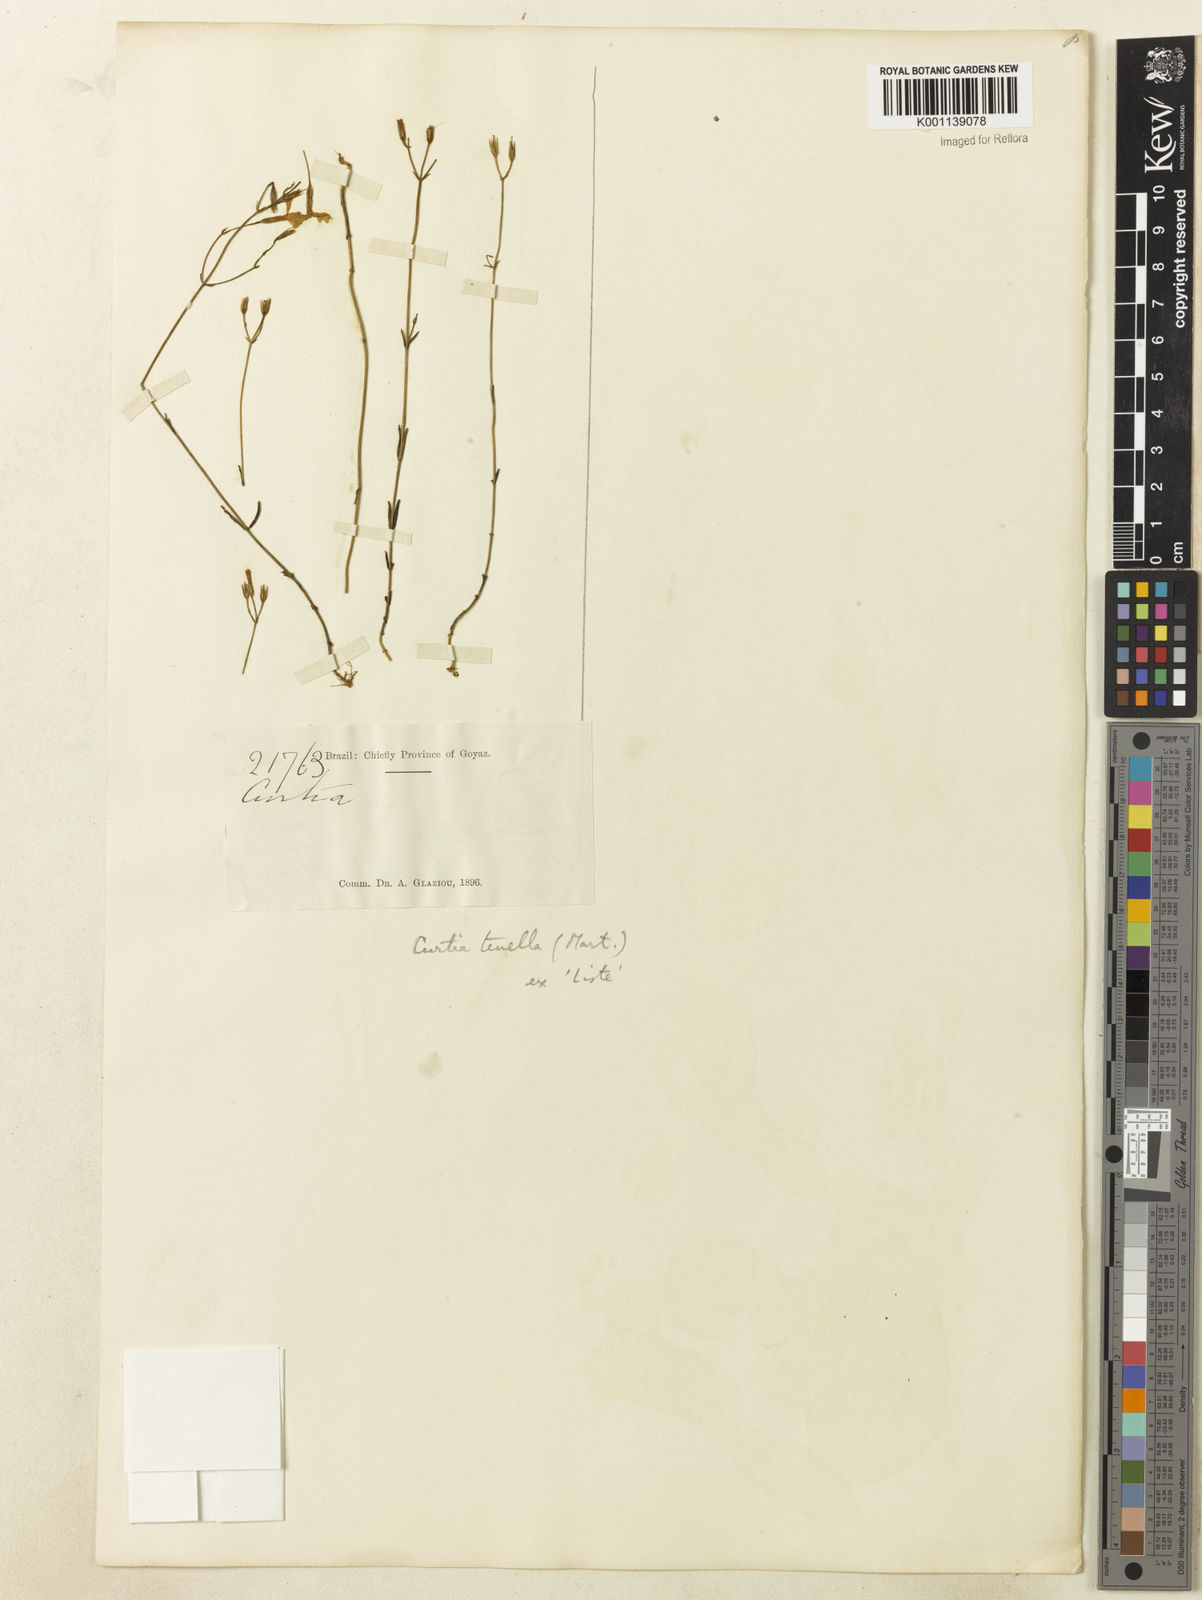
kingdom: Plantae
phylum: Tracheophyta
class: Magnoliopsida
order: Gentianales
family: Gentianaceae
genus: Curtia
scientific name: Curtia tenella
